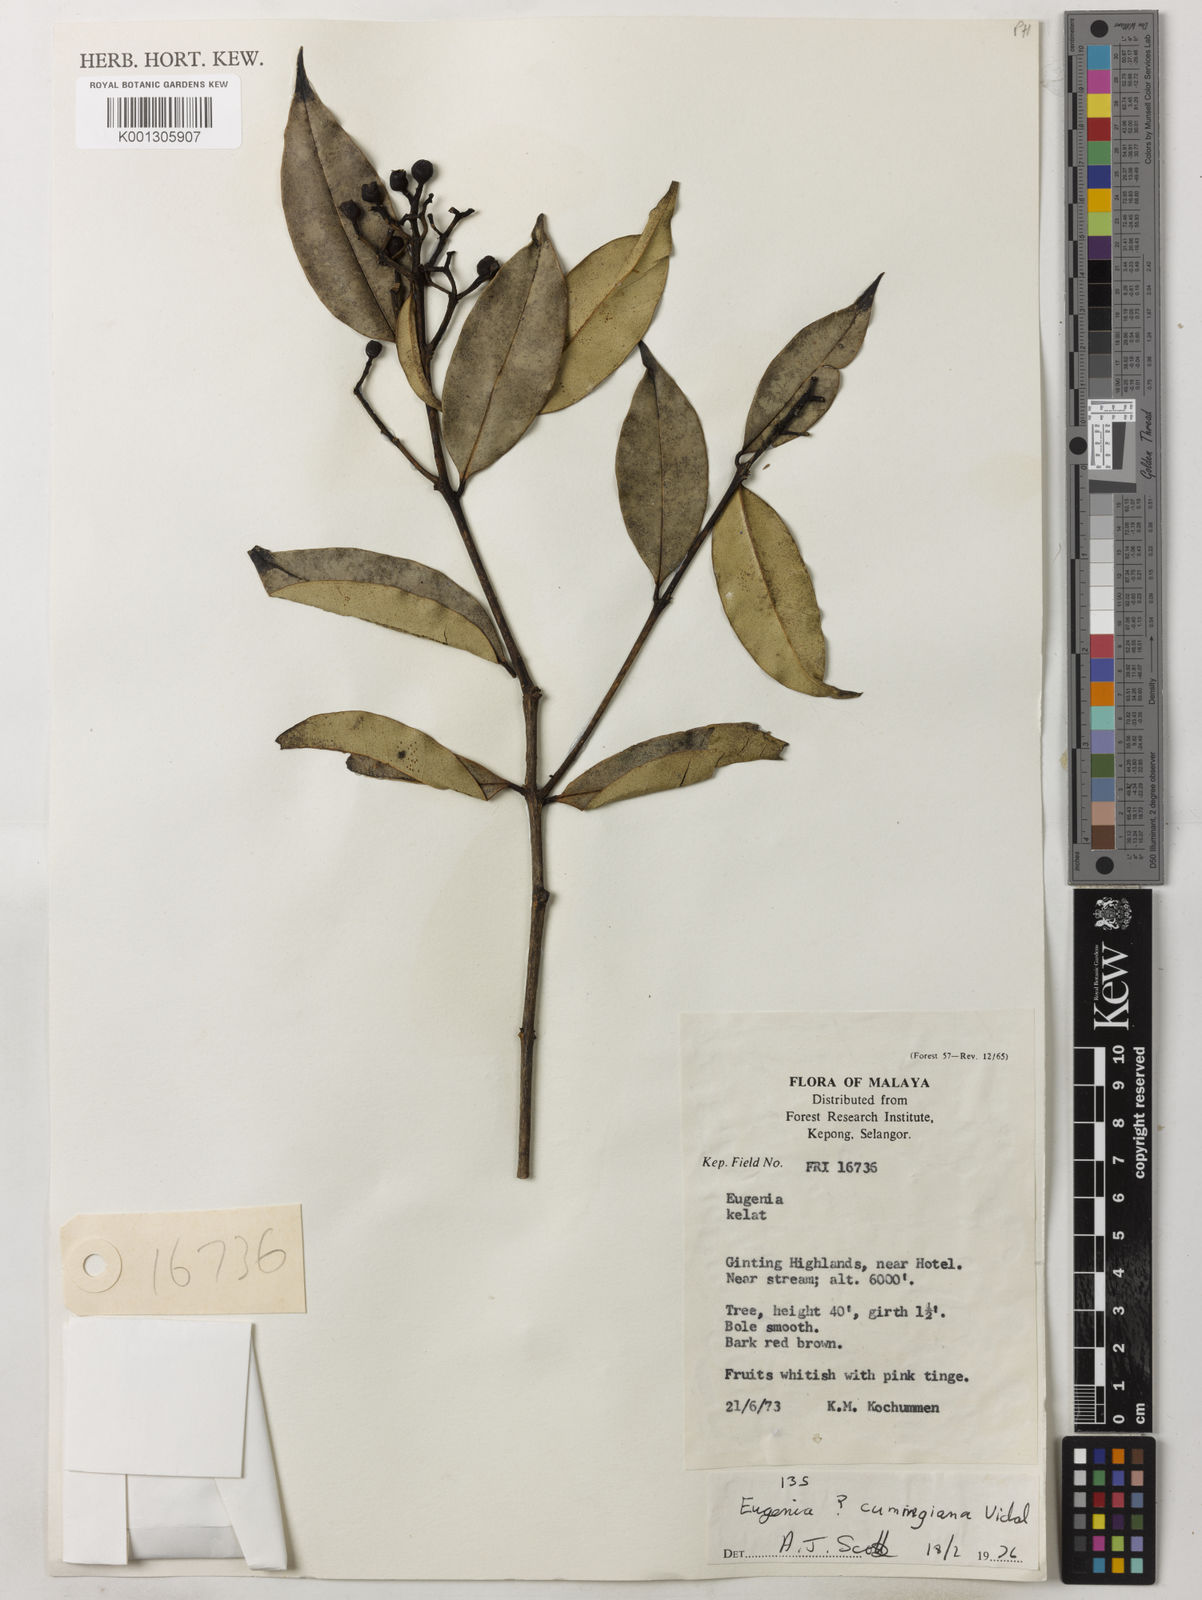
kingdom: Plantae
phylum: Tracheophyta
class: Magnoliopsida
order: Myrtales
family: Myrtaceae
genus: Syzygium
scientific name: Syzygium acuminatissimum
